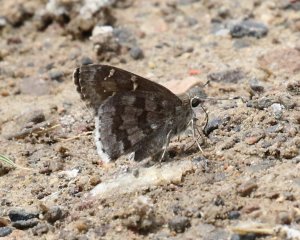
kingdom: Animalia
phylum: Arthropoda
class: Insecta
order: Lepidoptera
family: Hesperiidae
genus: Cogia
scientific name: Cogia hippalus
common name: Acacia Skipper
